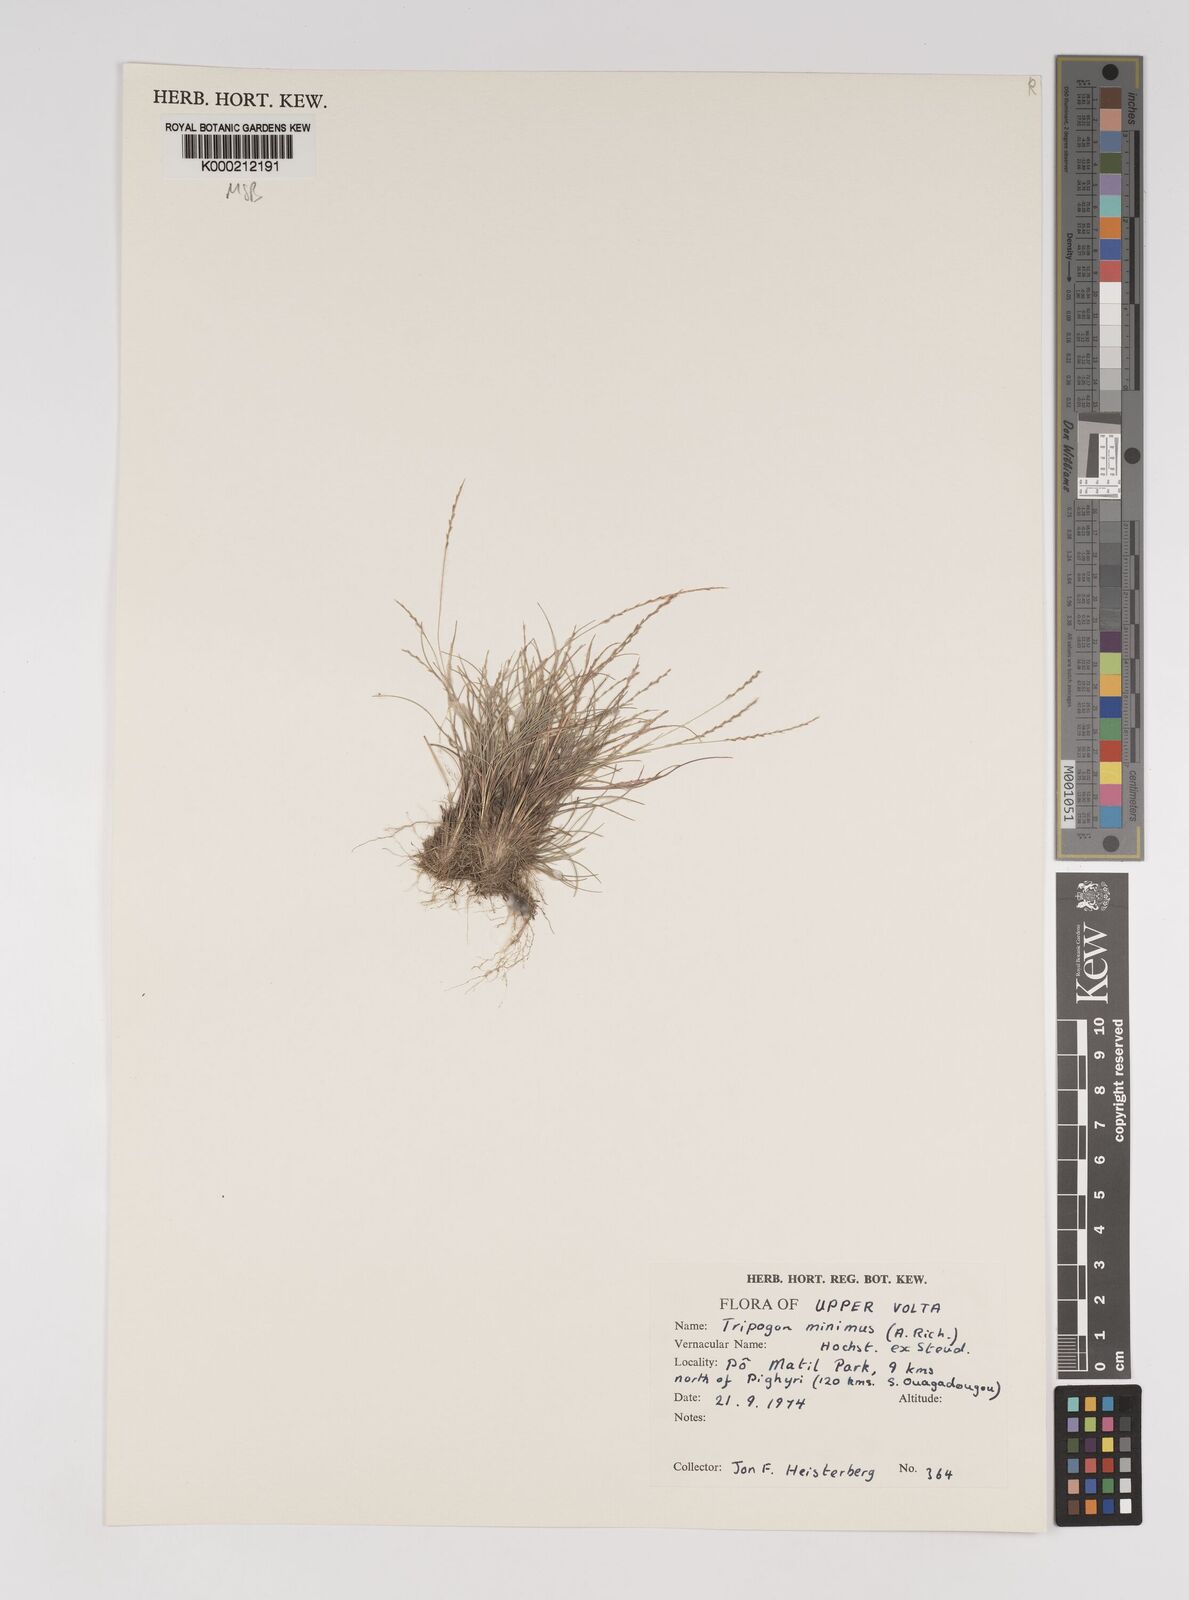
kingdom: Plantae
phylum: Tracheophyta
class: Liliopsida
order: Poales
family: Poaceae
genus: Tripogonella
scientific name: Tripogonella minima
